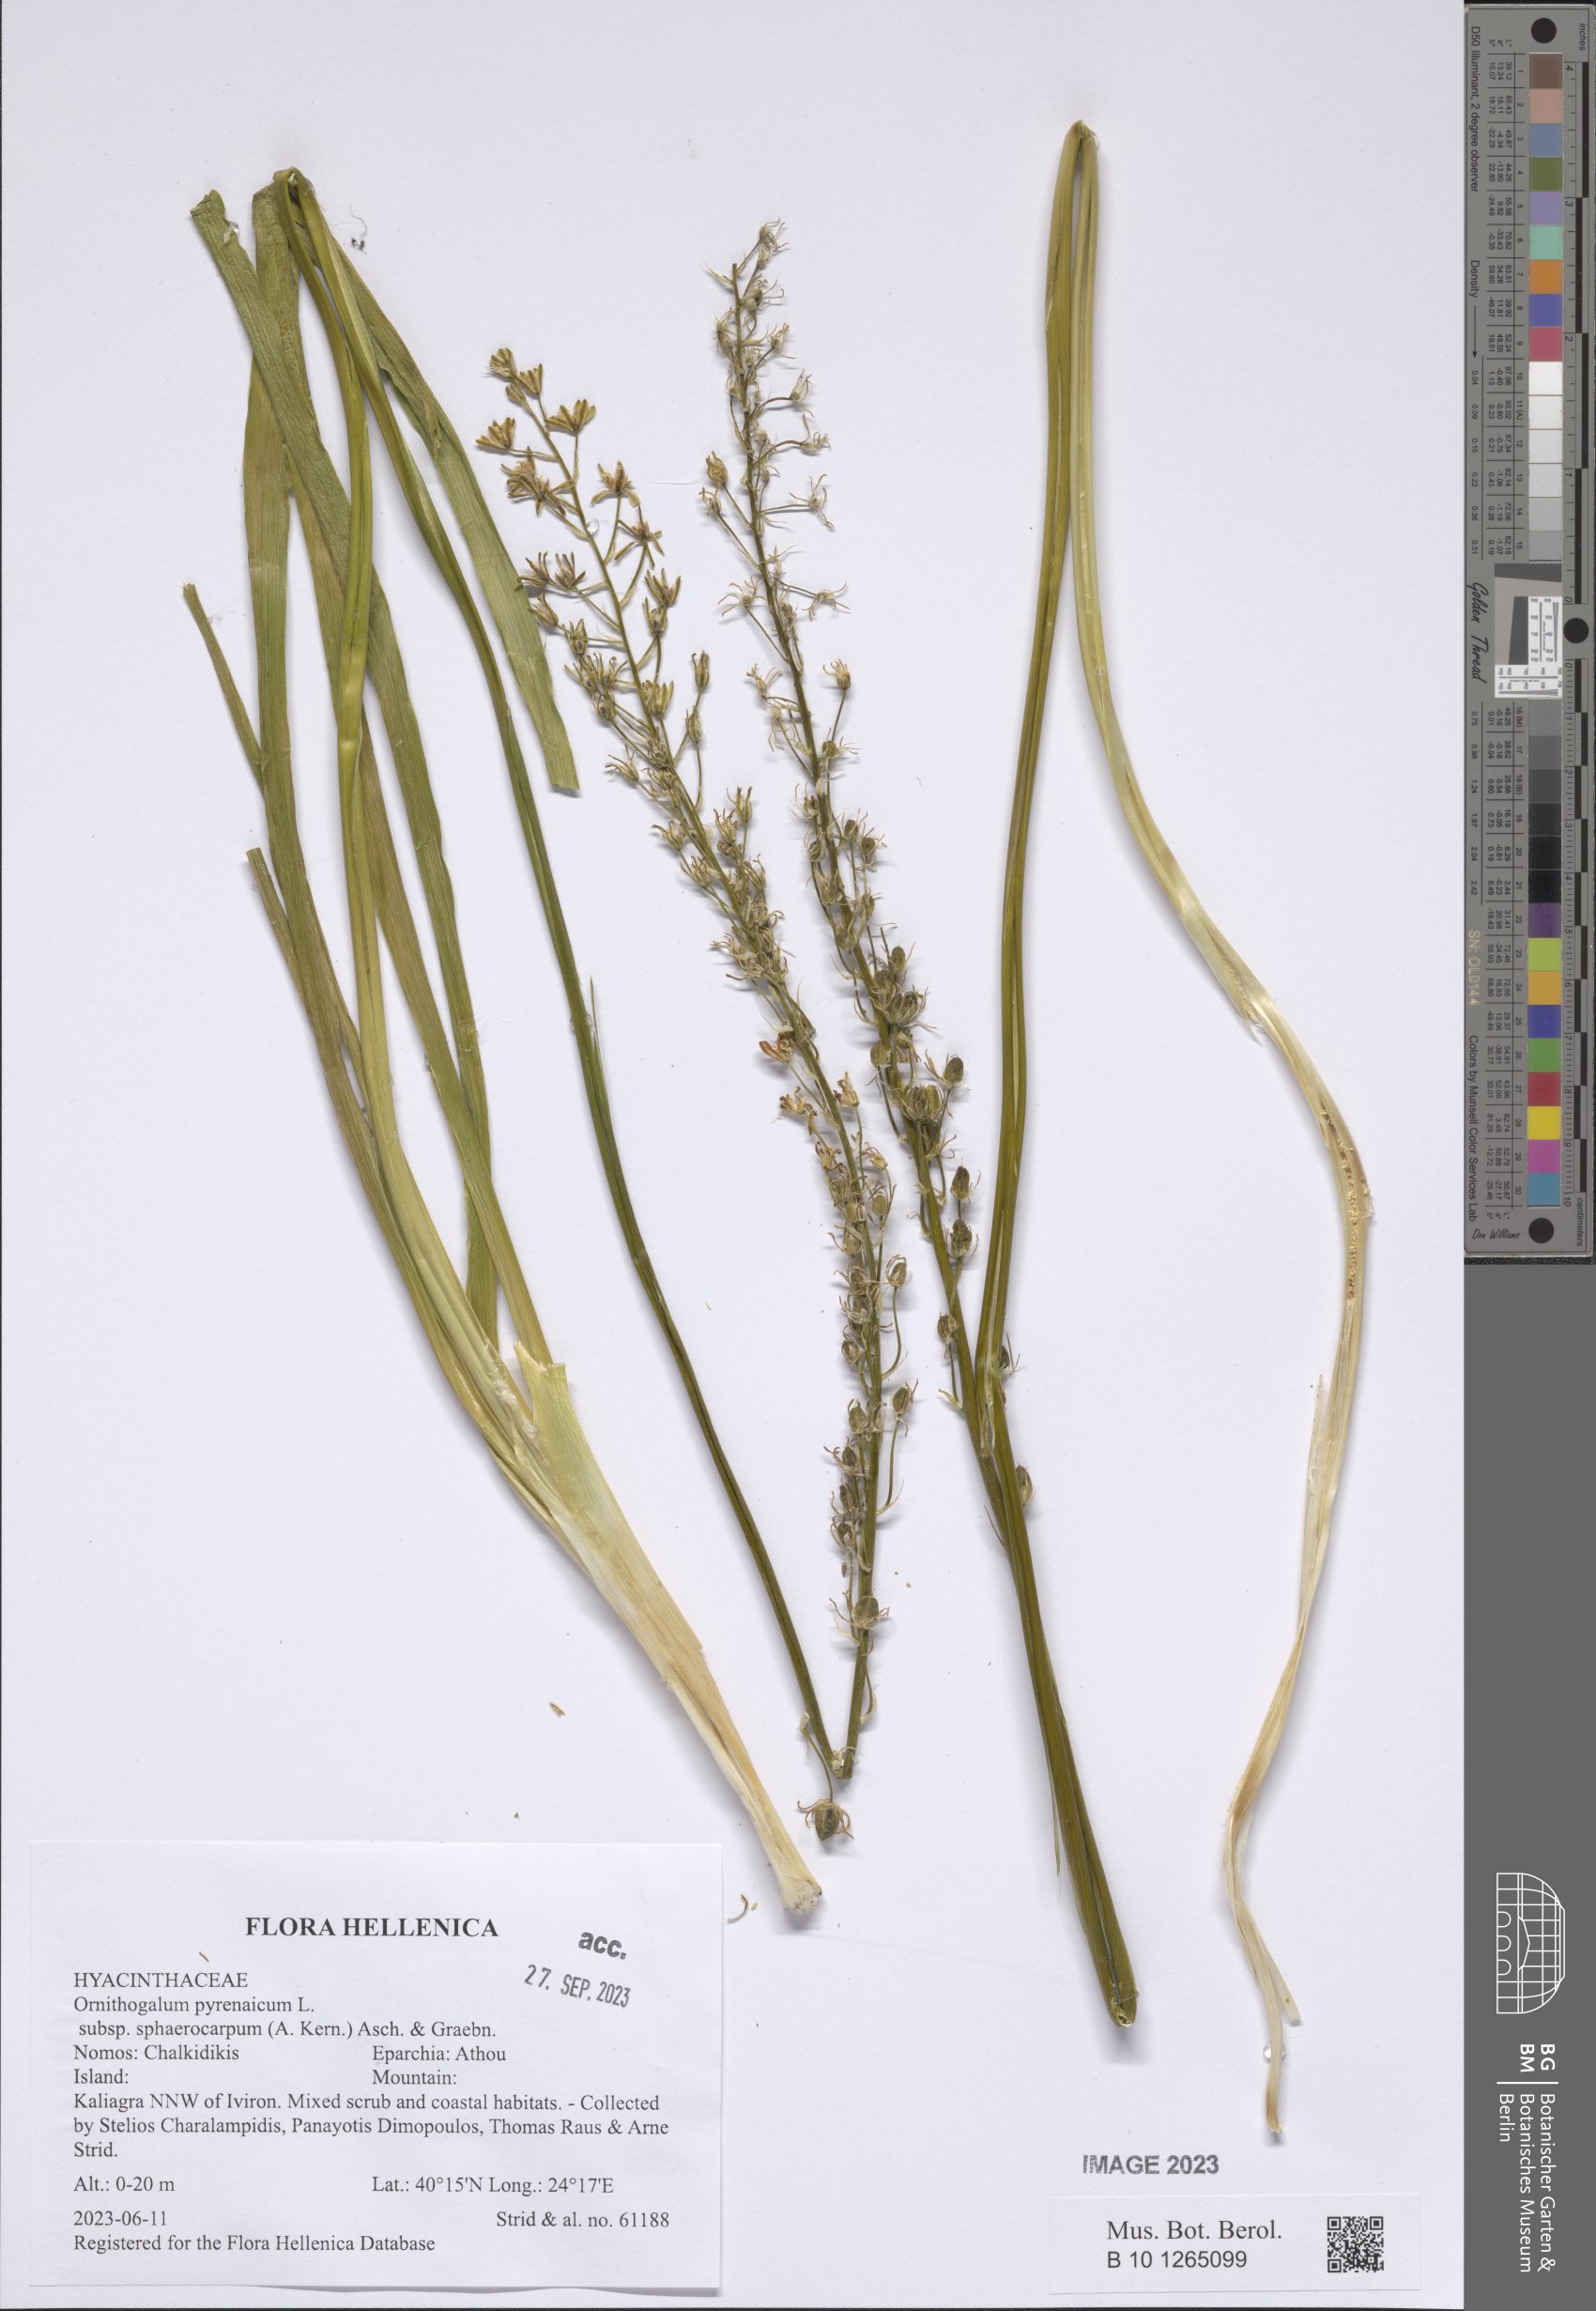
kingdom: Plantae
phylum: Tracheophyta
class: Liliopsida
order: Asparagales
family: Asparagaceae
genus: Ornithogalum
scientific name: Ornithogalum pyrenaicum
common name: Spiked star-of-bethlehem
